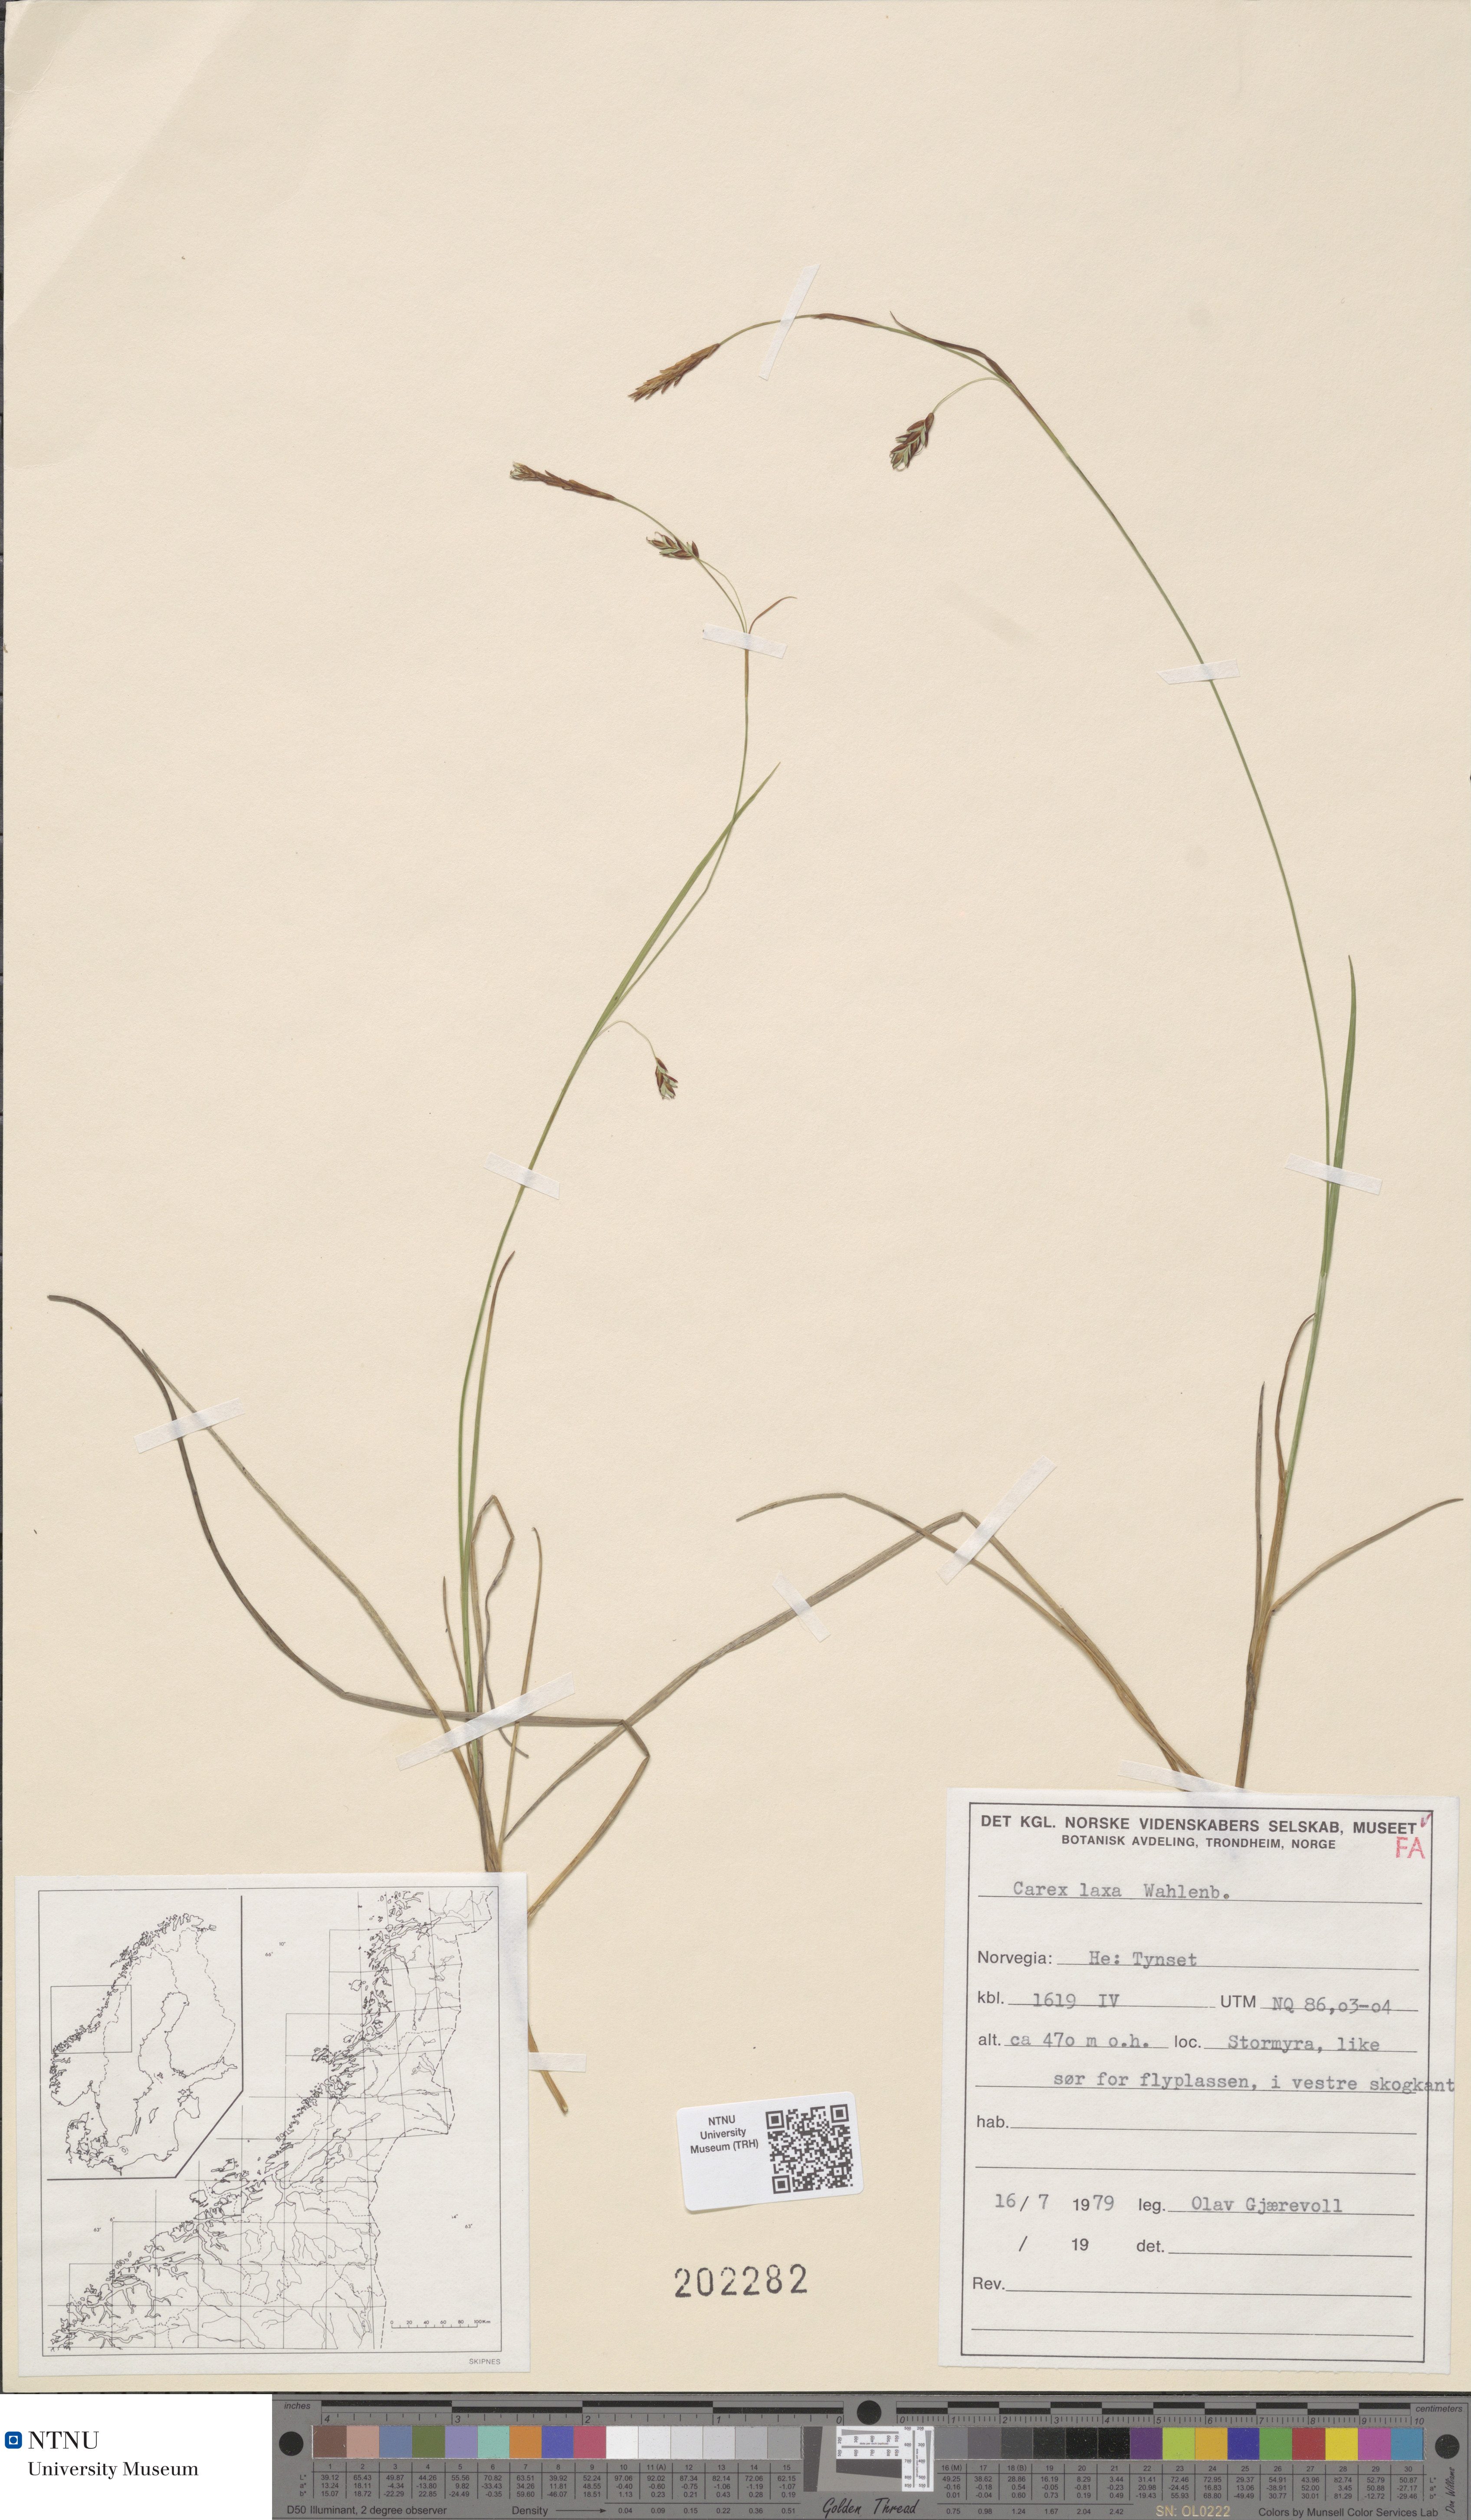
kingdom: Plantae
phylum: Tracheophyta
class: Liliopsida
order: Poales
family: Cyperaceae
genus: Carex
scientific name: Carex laxa
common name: Weak sedge
